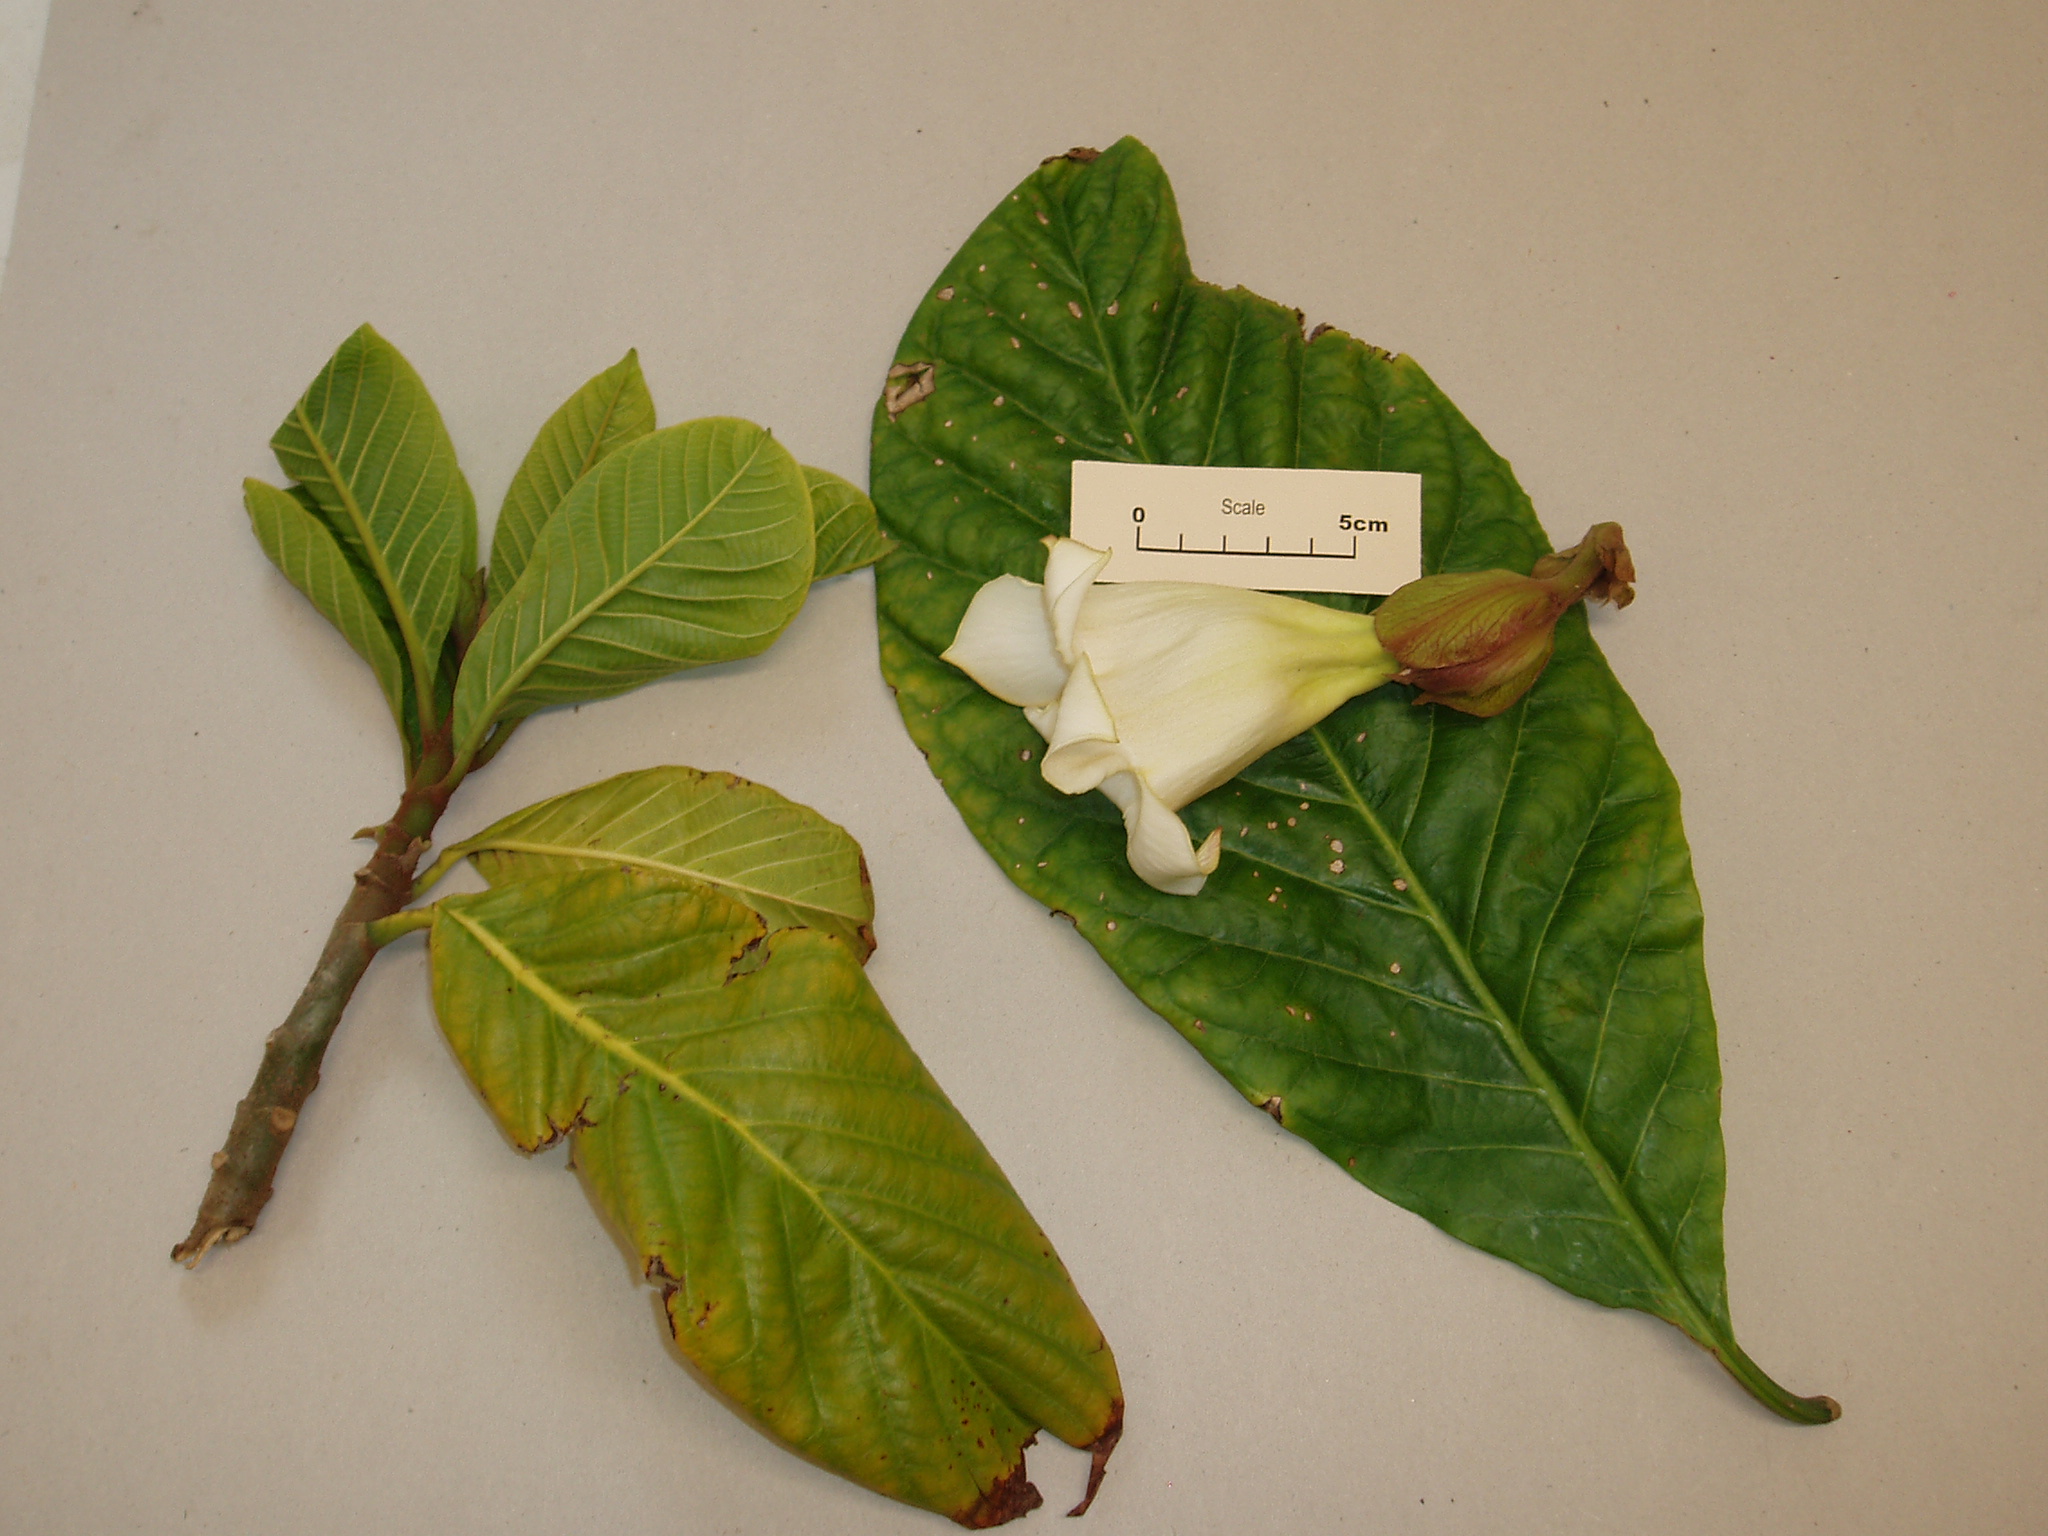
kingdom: Plantae
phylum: Tracheophyta
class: Magnoliopsida
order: Gentianales
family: Apocynaceae
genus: Beaumontia
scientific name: Beaumontia grandiflora
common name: Easter-lily-vine
